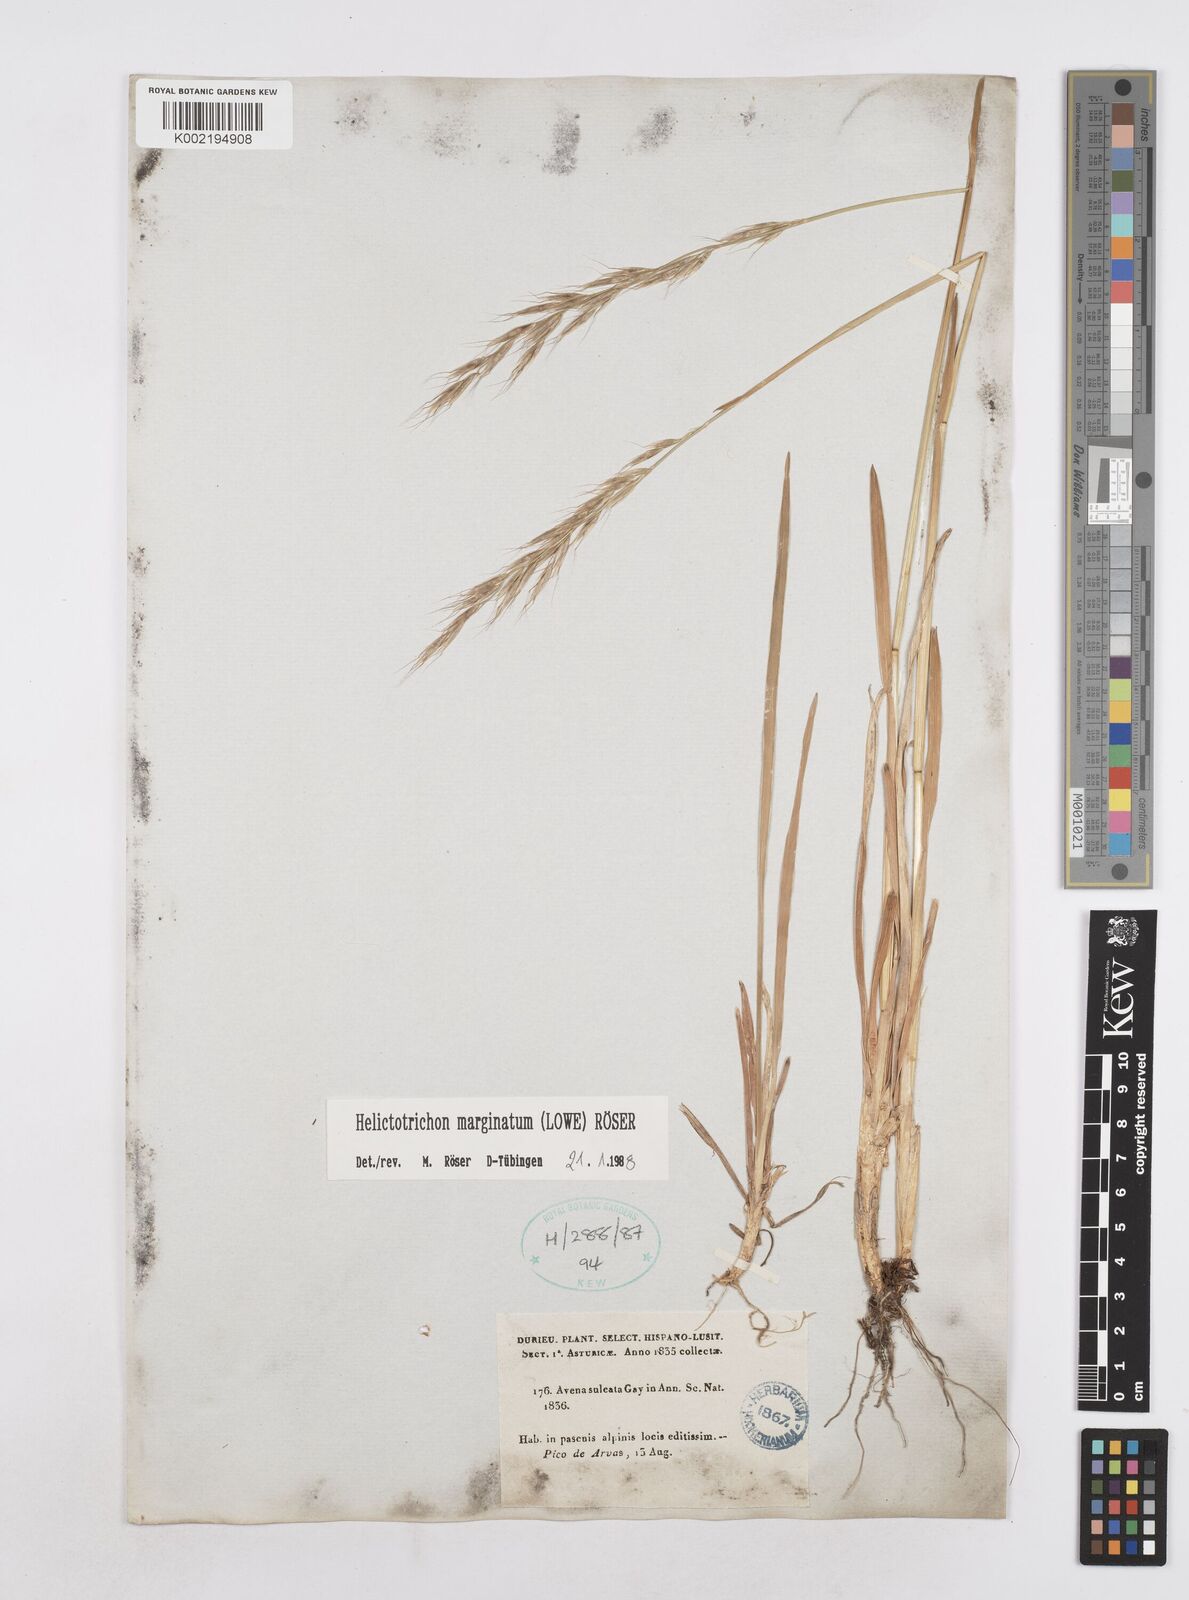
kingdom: Plantae
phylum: Tracheophyta
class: Liliopsida
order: Poales
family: Poaceae
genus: Helictotrichon
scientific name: Helictotrichon
